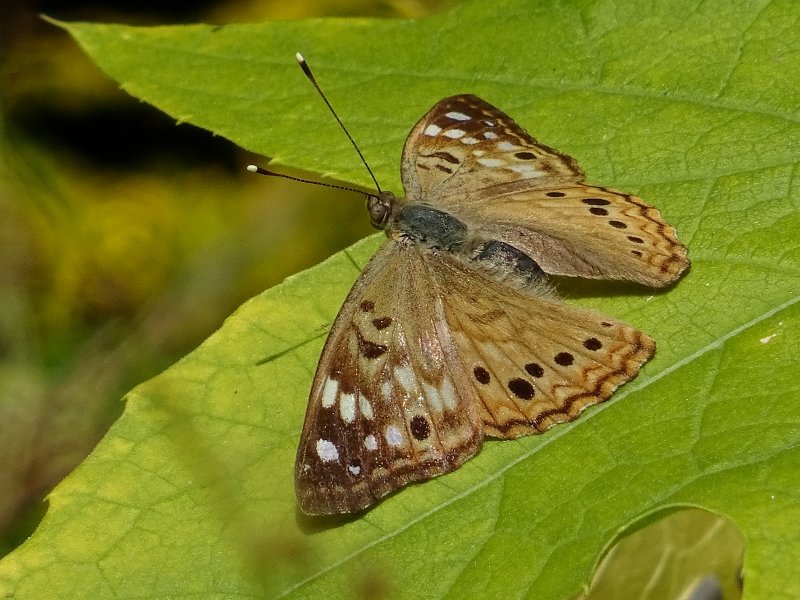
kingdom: Animalia
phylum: Arthropoda
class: Insecta
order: Lepidoptera
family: Nymphalidae
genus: Asterocampa
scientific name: Asterocampa celtis
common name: Hackberry Emperor
